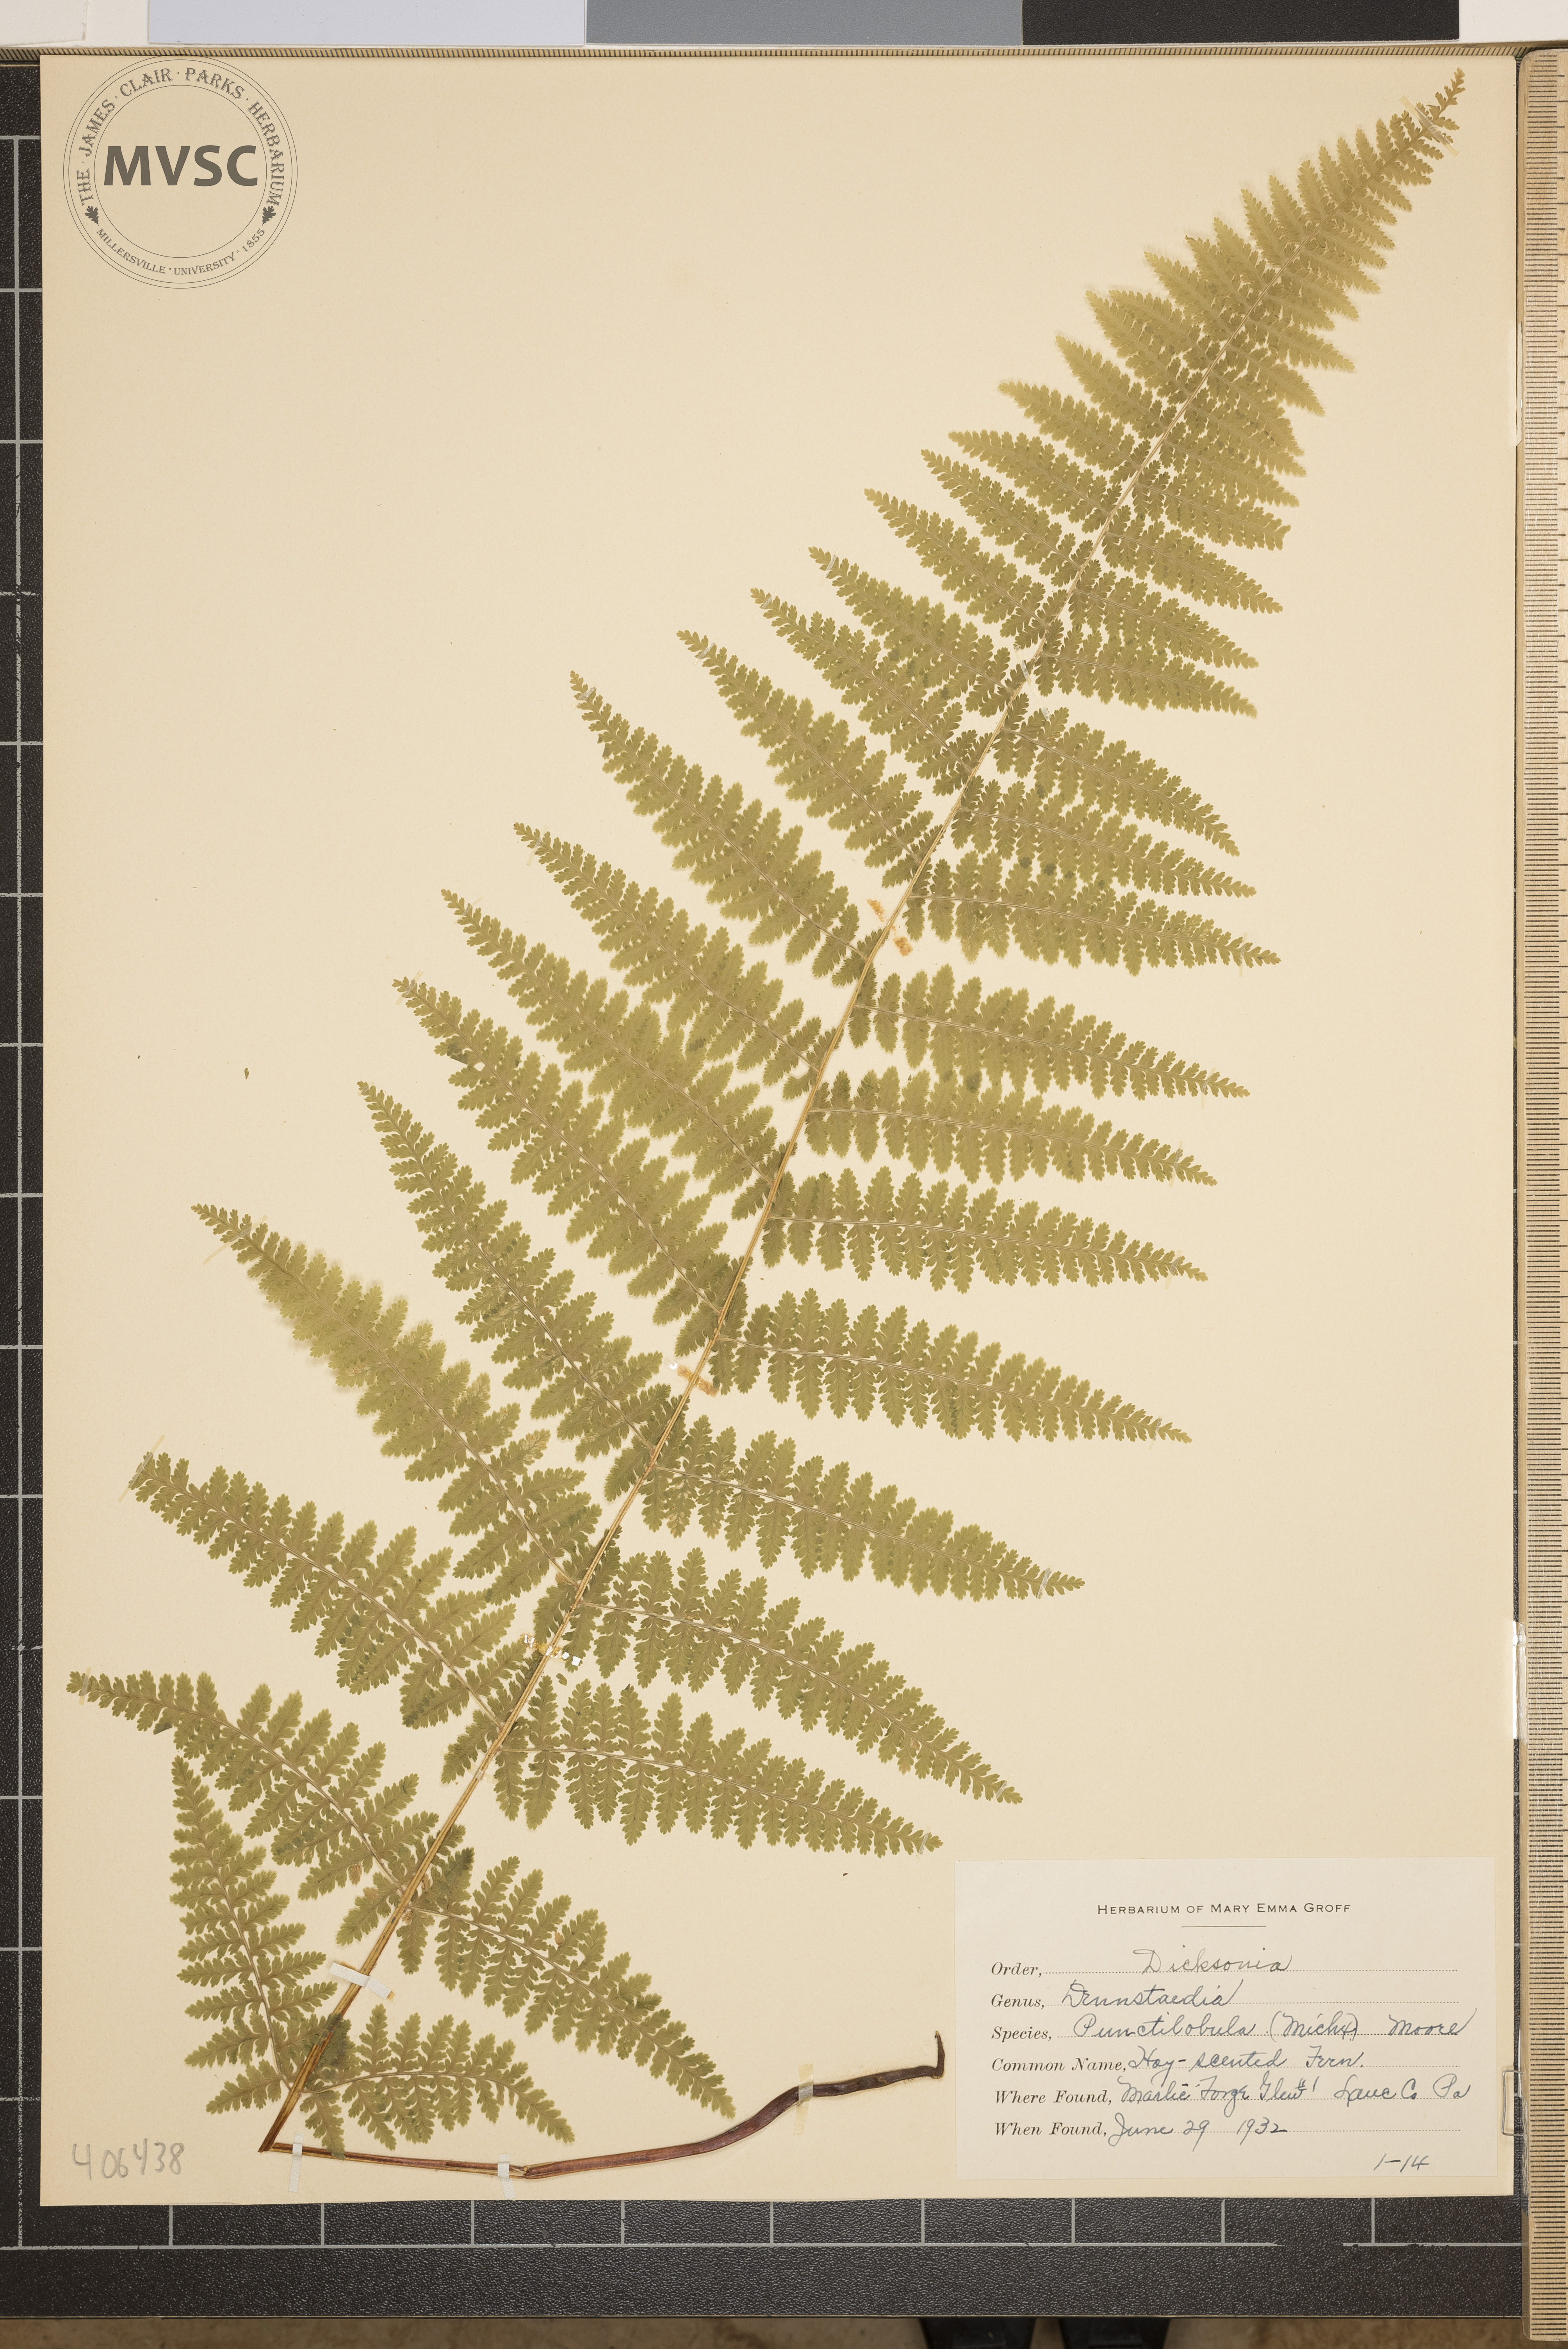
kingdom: Plantae
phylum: Tracheophyta
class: Polypodiopsida
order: Polypodiales
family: Dennstaedtiaceae
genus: Sitobolium
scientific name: Sitobolium punctilobum
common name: Hay-scented Fern
